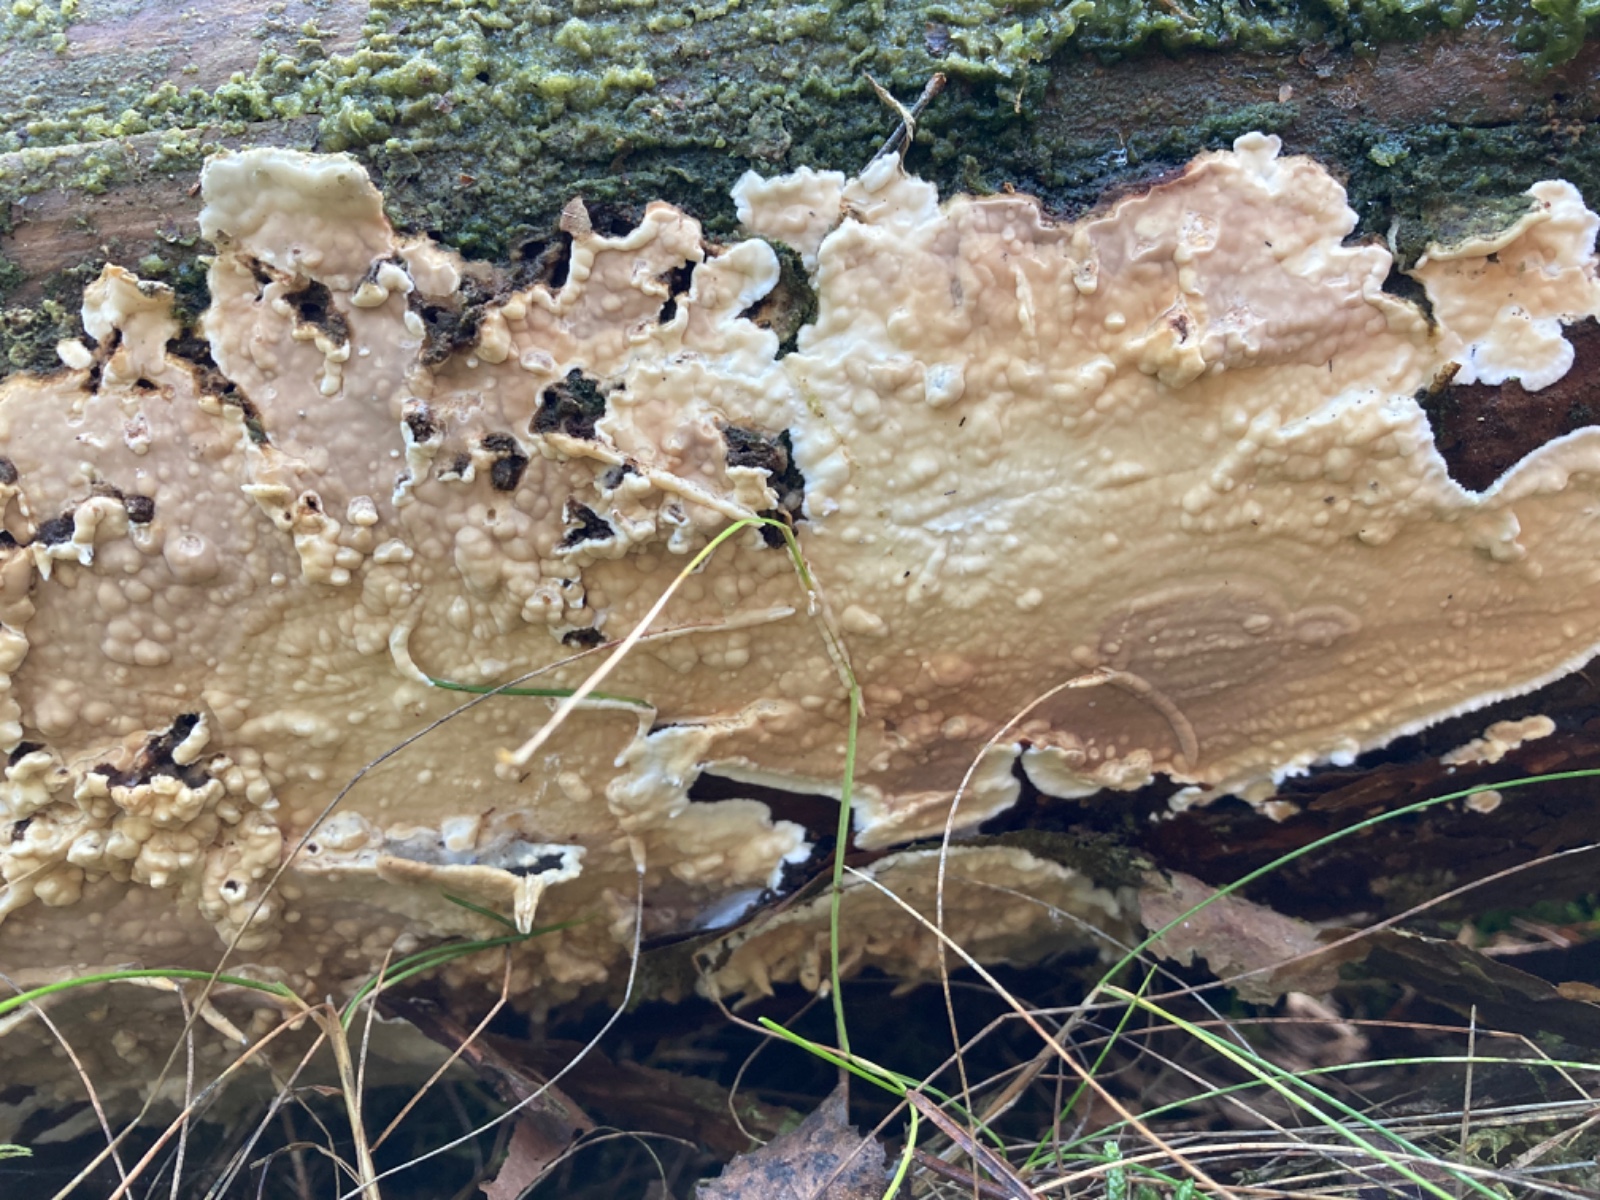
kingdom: Fungi
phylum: Basidiomycota
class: Agaricomycetes
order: Polyporales
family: Dacryobolaceae
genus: Dacryobolus
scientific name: Dacryobolus karstenii
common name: glat vulkanskorpe
